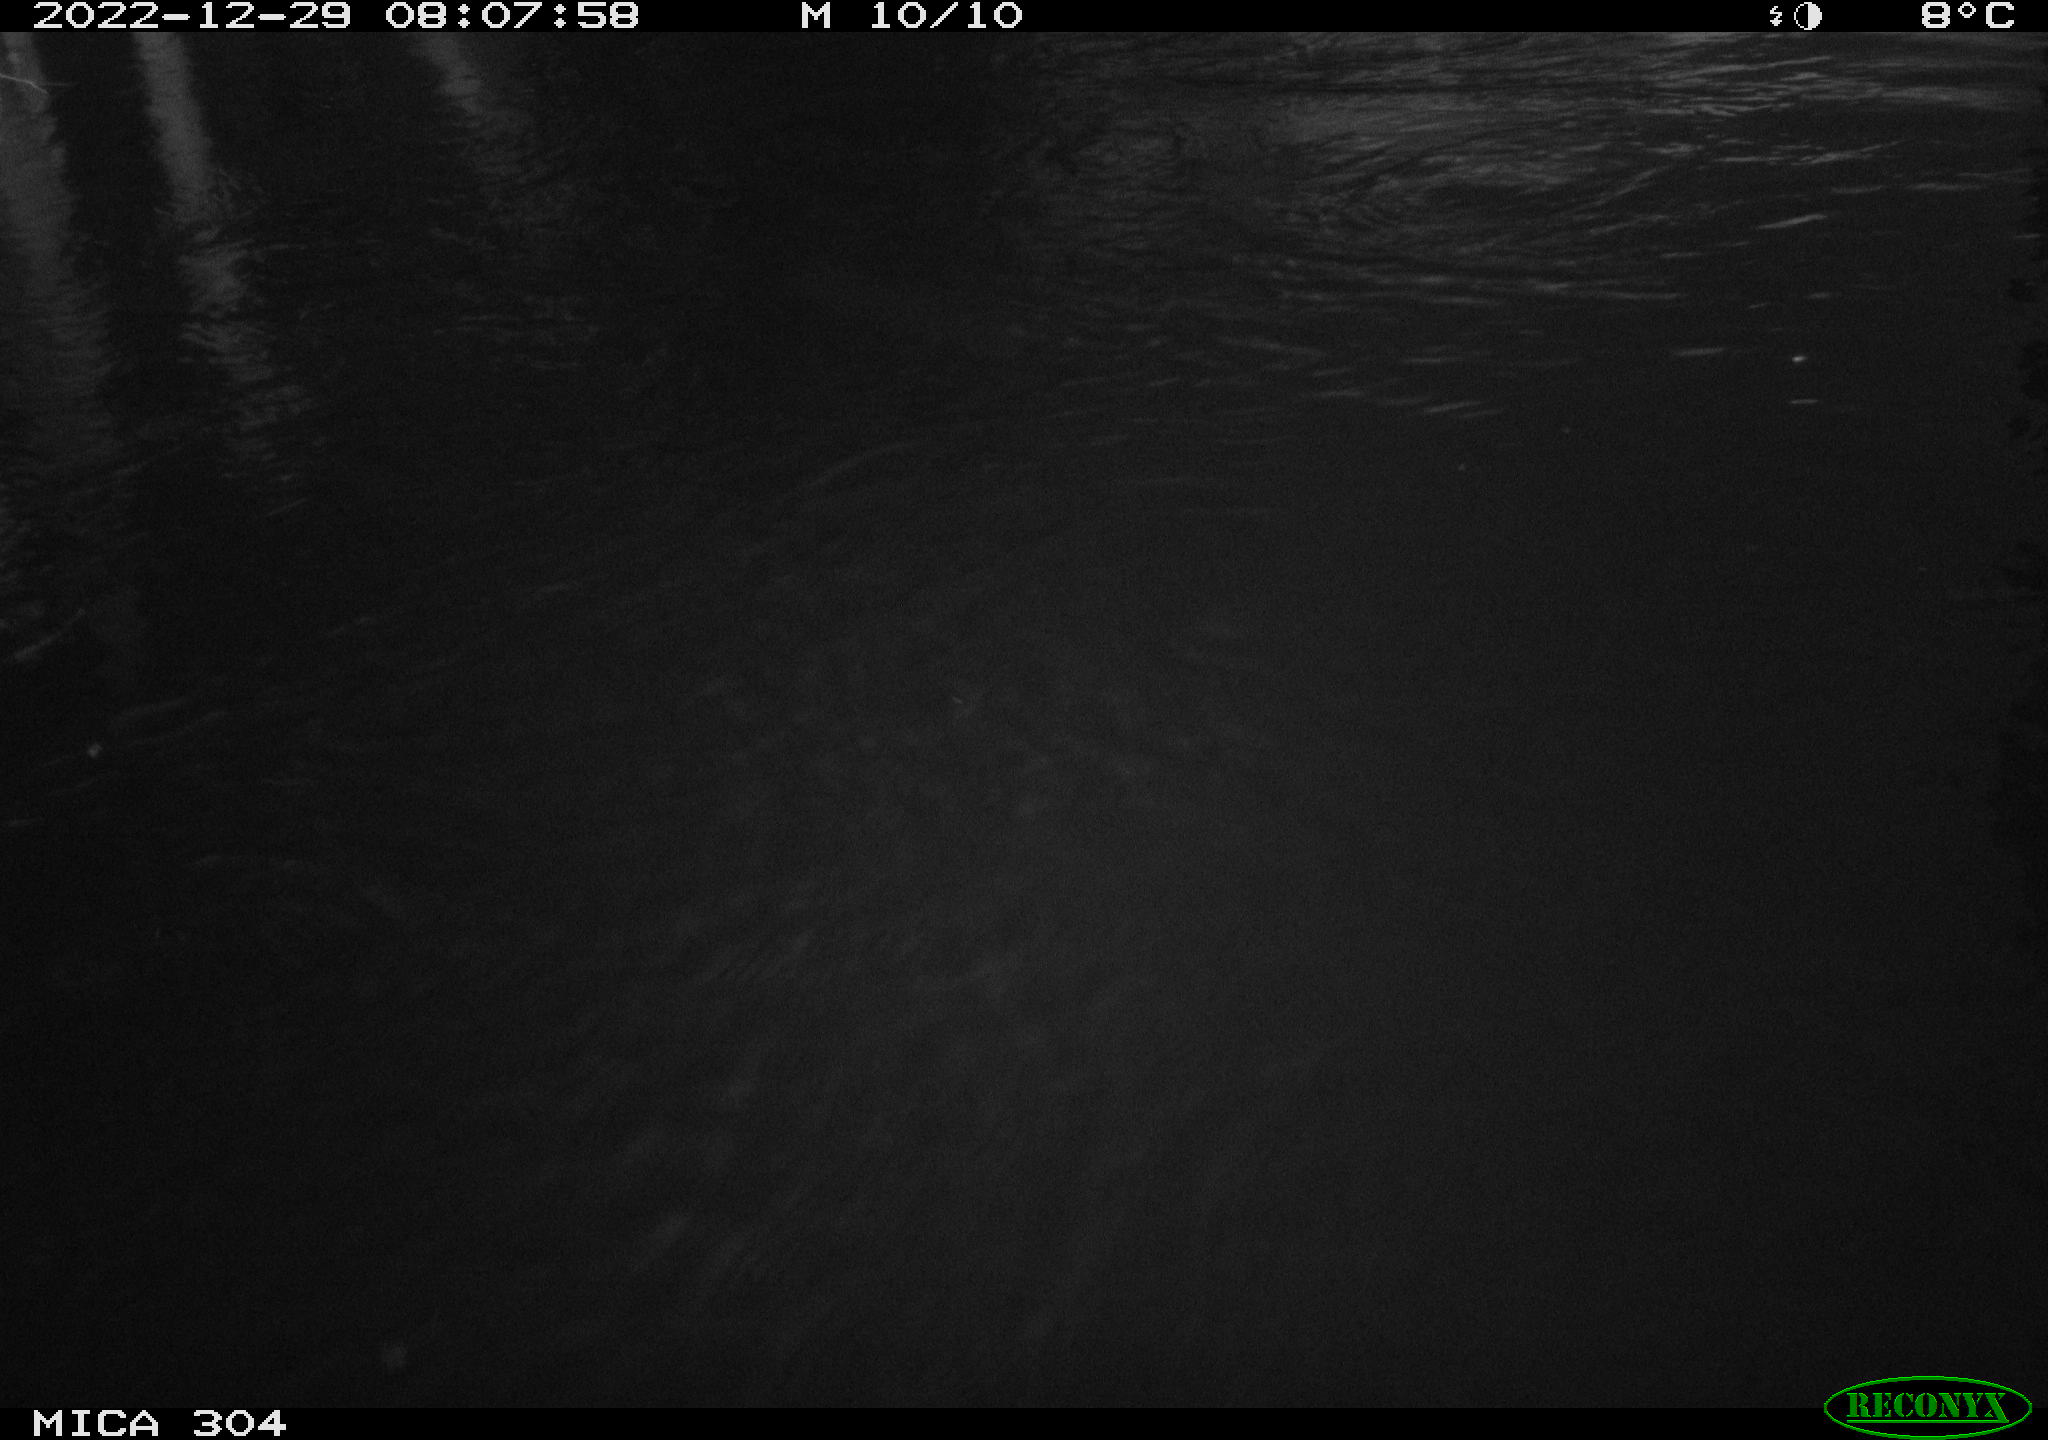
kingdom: Animalia
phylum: Chordata
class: Aves
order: Gruiformes
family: Rallidae
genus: Fulica
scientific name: Fulica atra
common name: Eurasian coot
